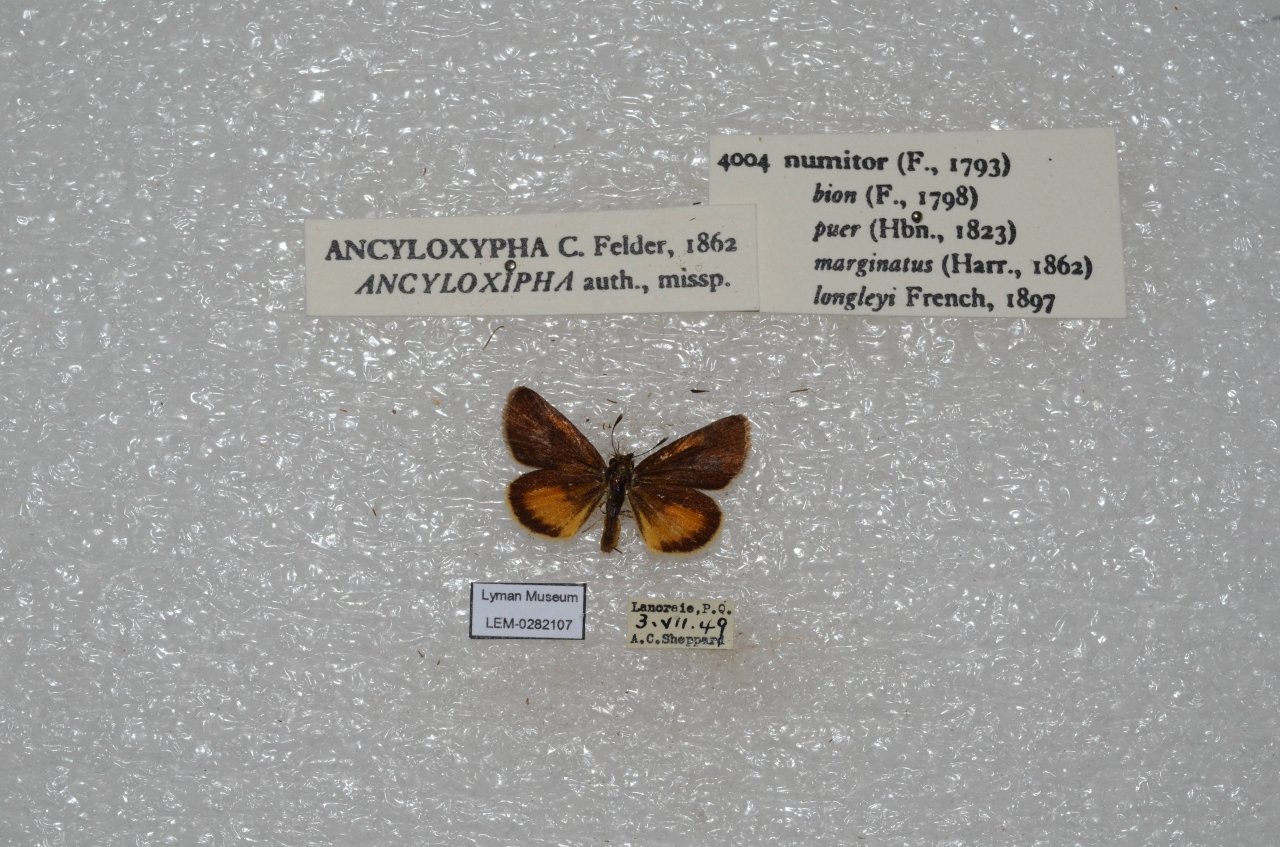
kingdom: Animalia
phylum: Arthropoda
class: Insecta
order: Lepidoptera
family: Hesperiidae
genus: Ancyloxypha
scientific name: Ancyloxypha numitor
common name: Least Skipper
